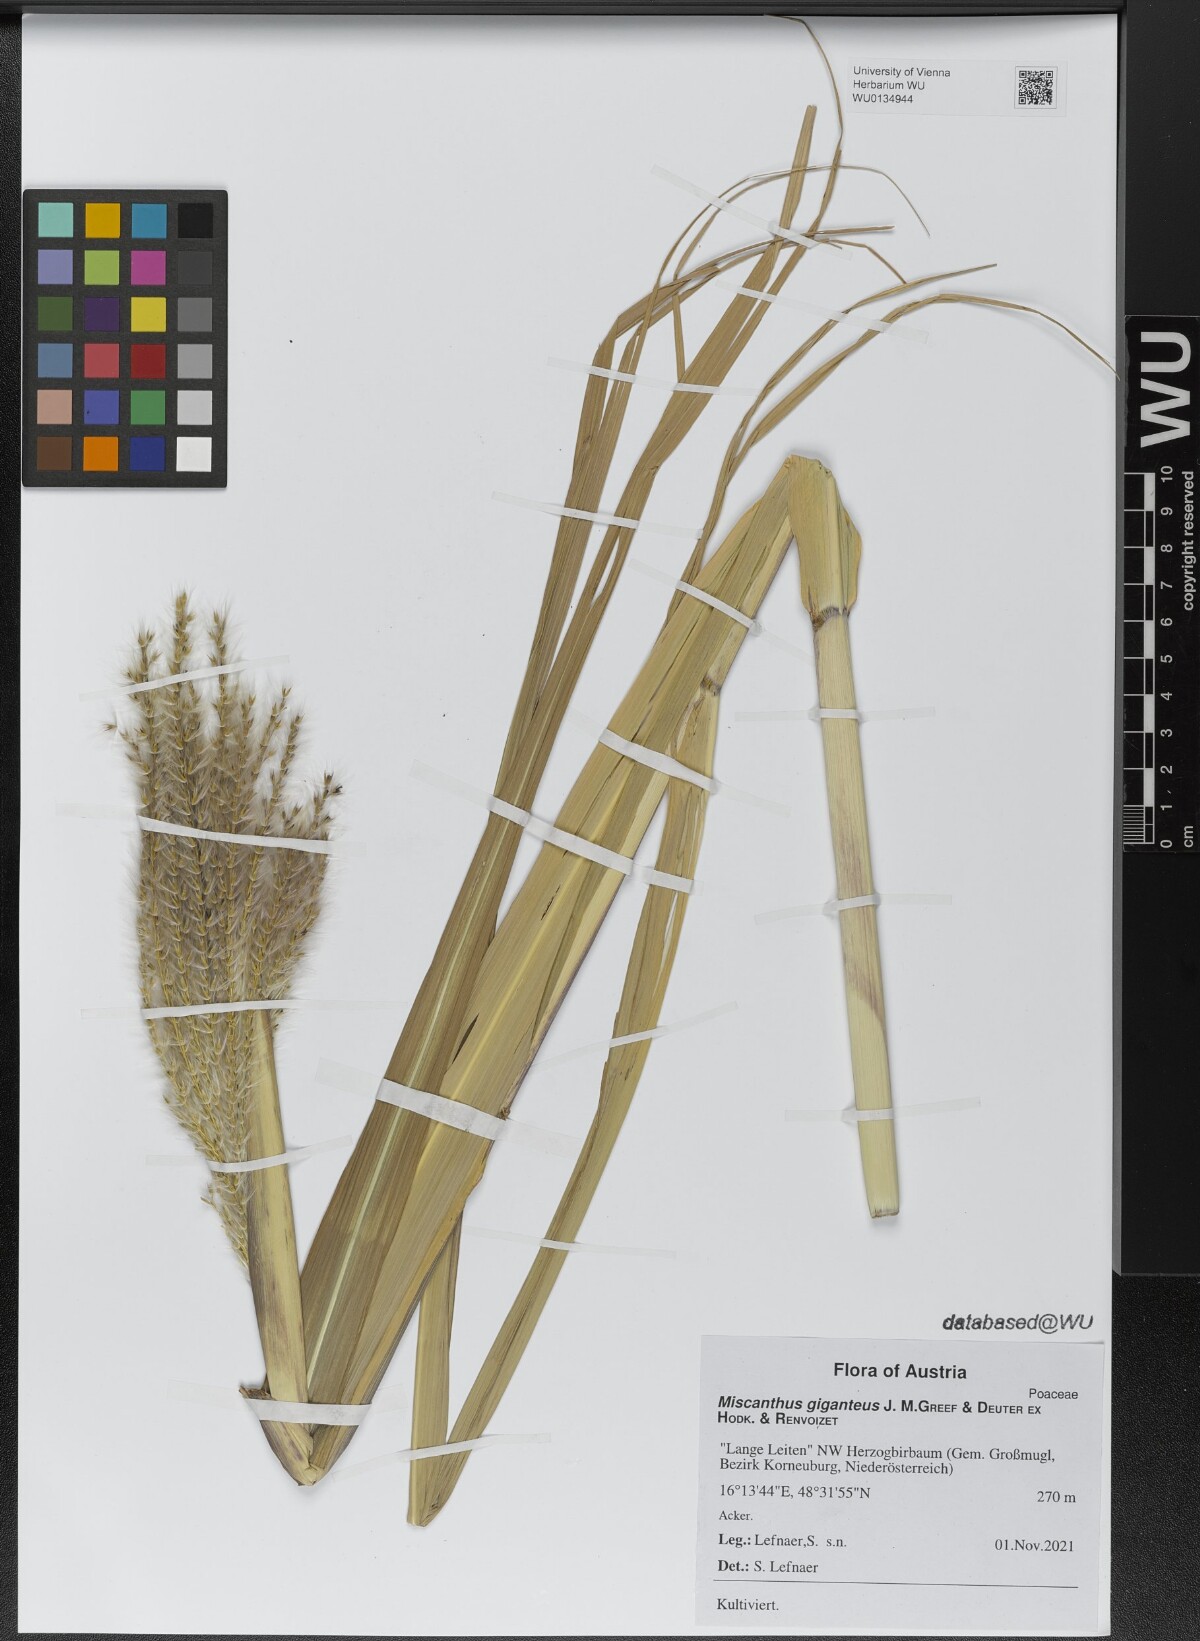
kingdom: Plantae
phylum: Tracheophyta
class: Liliopsida
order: Poales
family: Poaceae
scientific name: Poaceae
